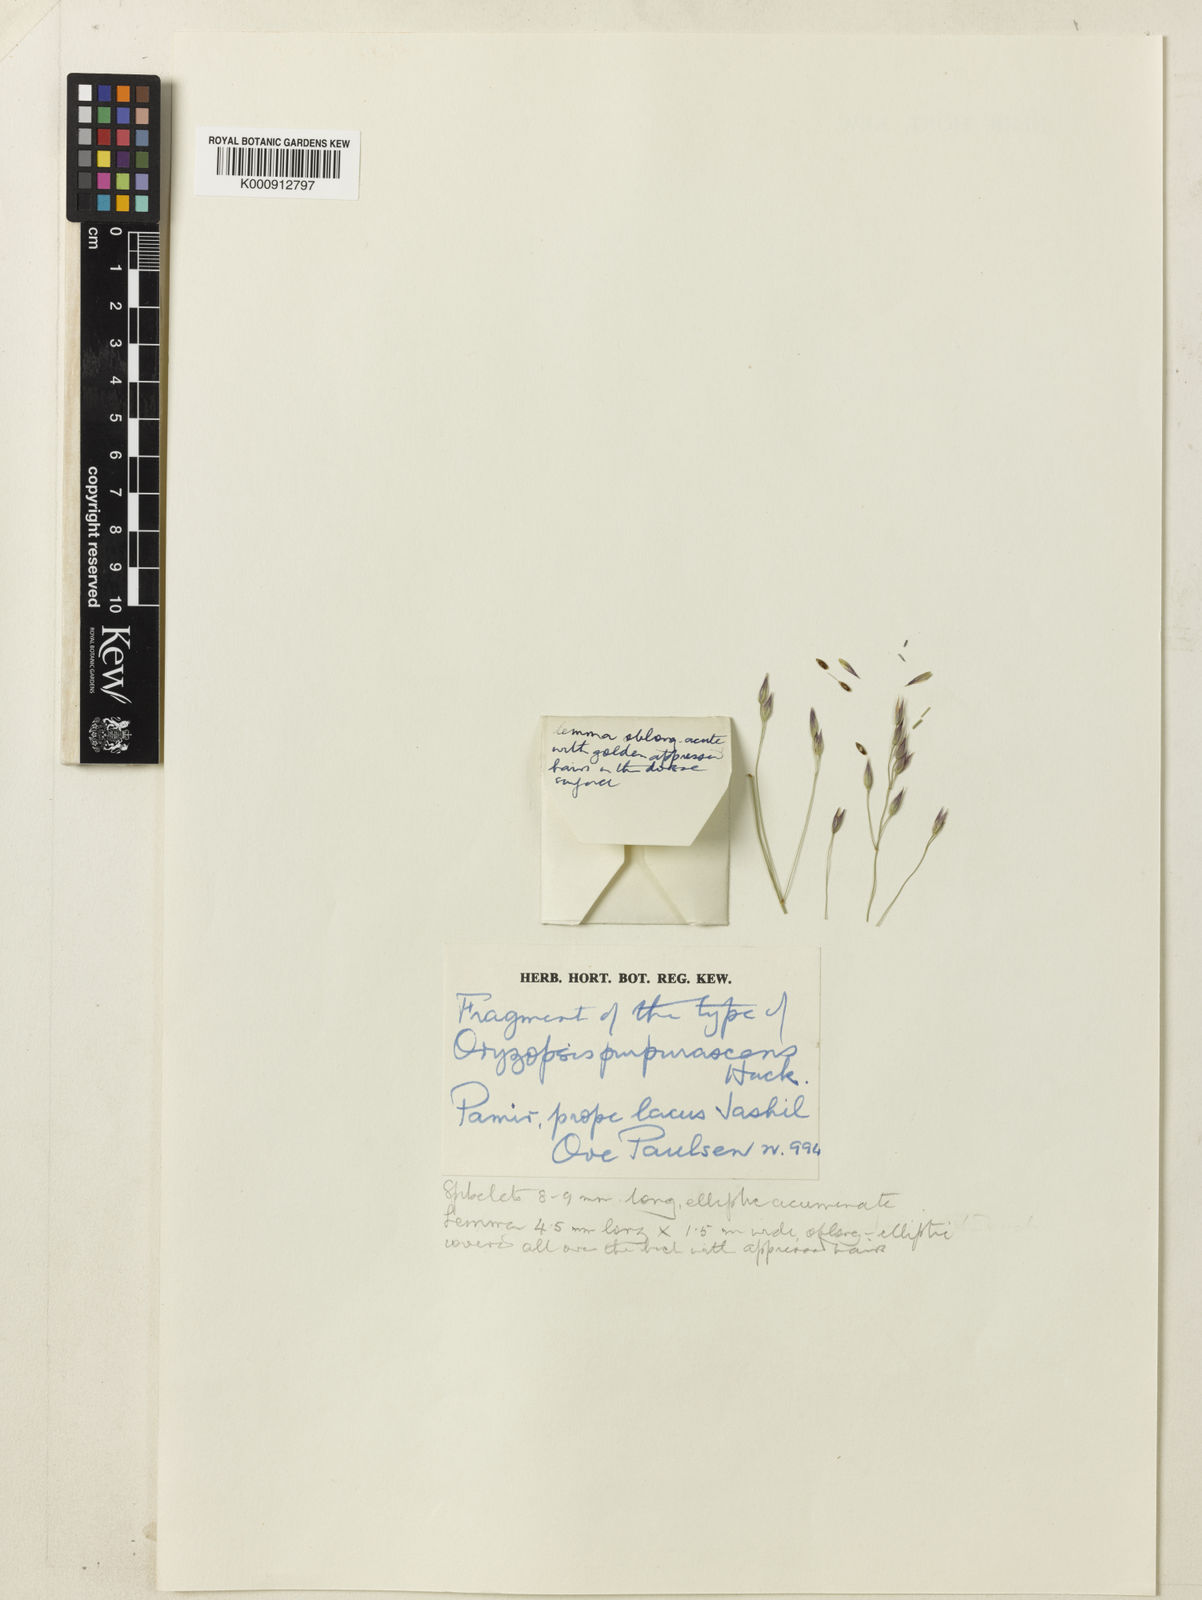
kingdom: Plantae
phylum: Tracheophyta
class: Liliopsida
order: Poales
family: Poaceae
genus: Piptatherum
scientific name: Piptatherum purpurascens
